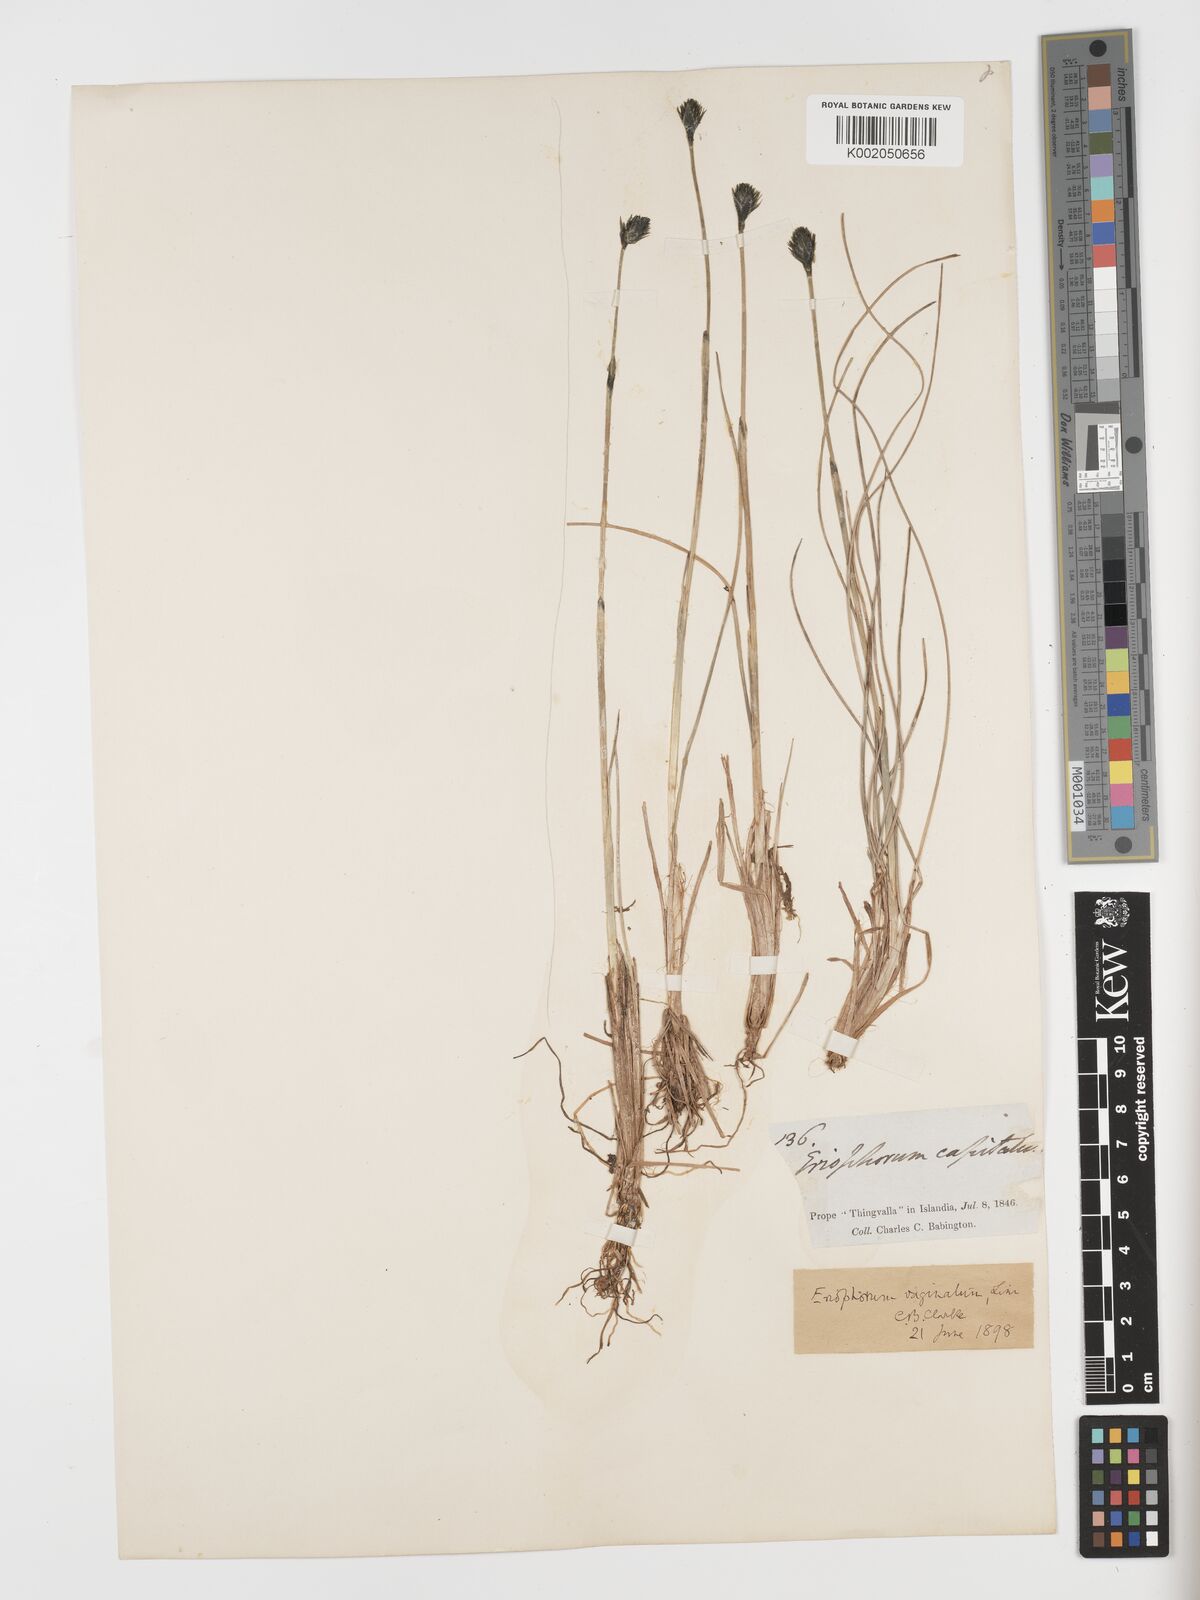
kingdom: Plantae
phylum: Tracheophyta
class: Liliopsida
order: Poales
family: Cyperaceae
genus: Eriophorum
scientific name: Eriophorum vaginatum
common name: Hare's-tail cottongrass
